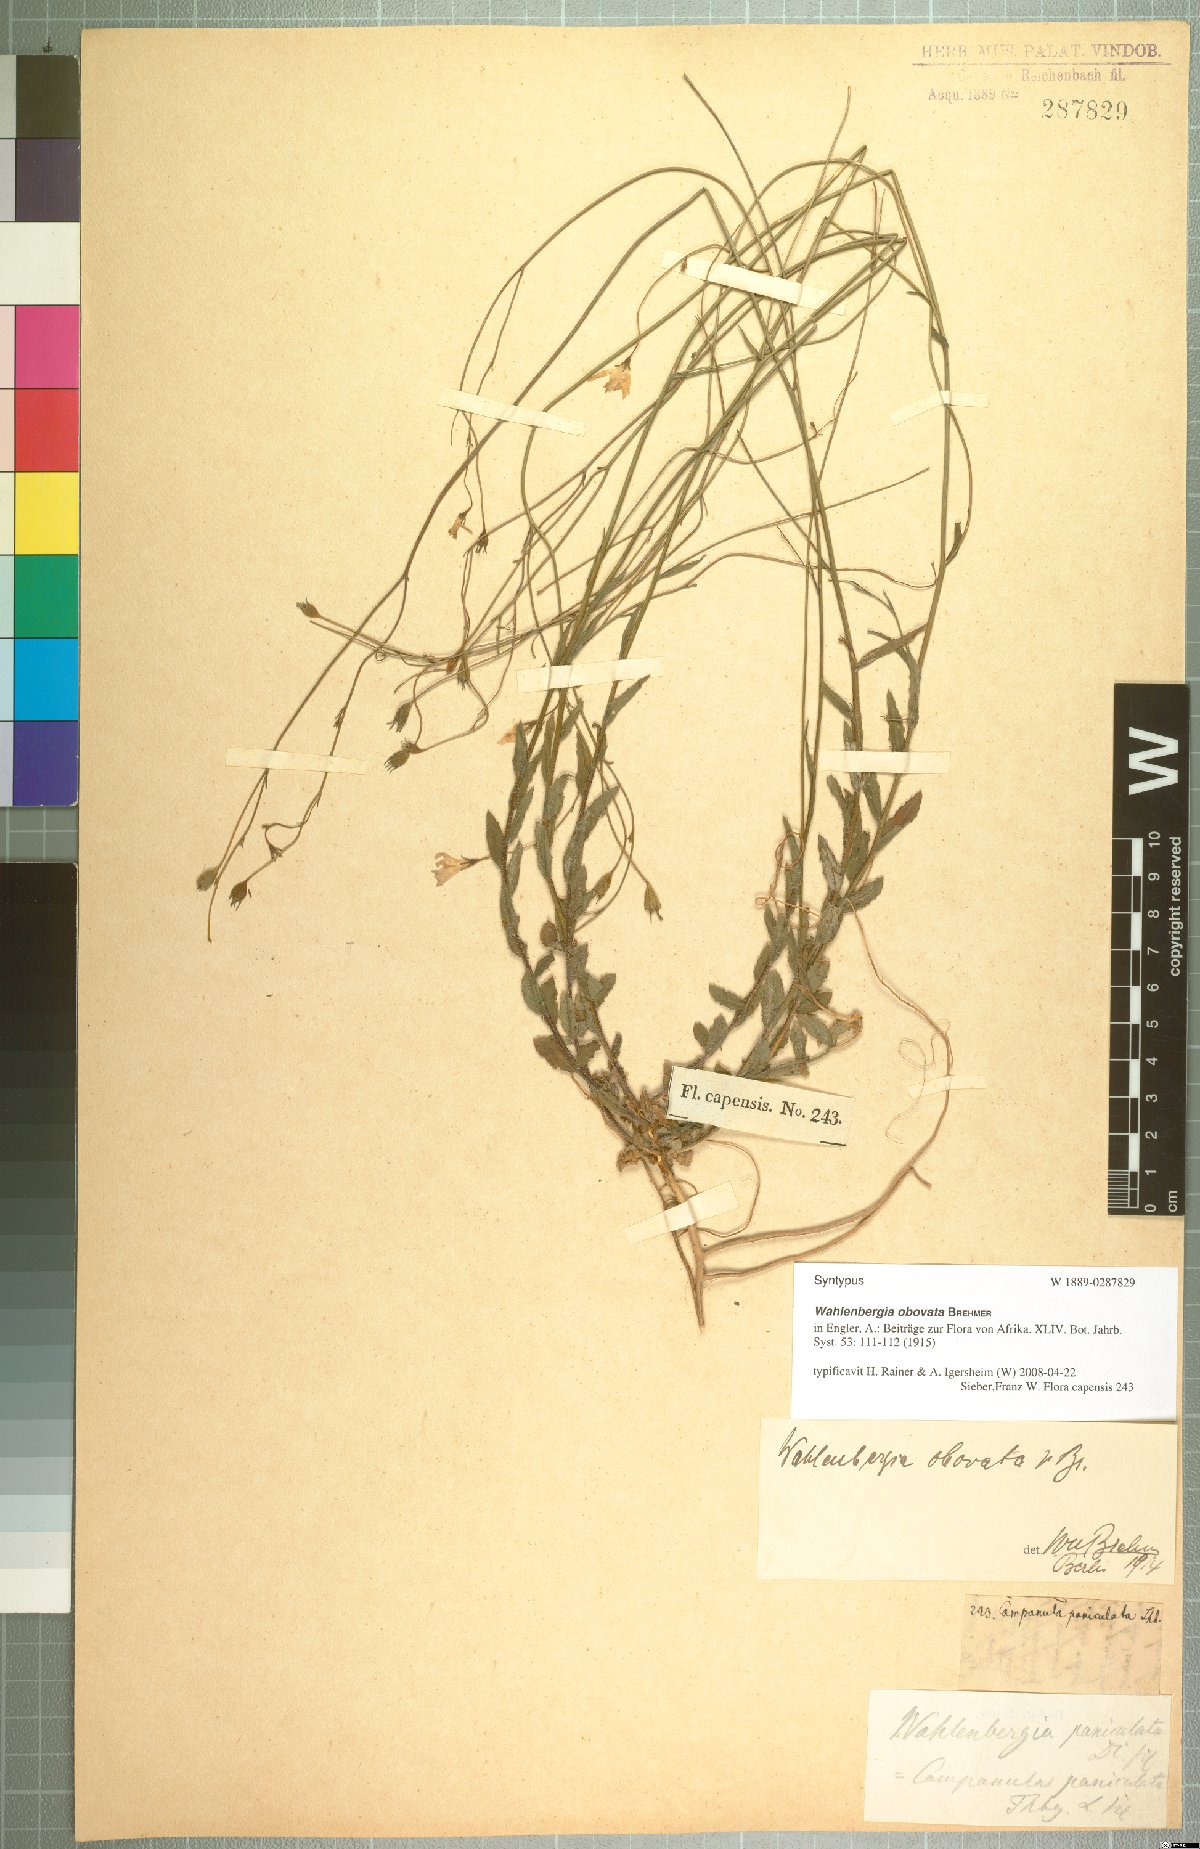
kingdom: Plantae
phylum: Tracheophyta
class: Magnoliopsida
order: Asterales
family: Campanulaceae
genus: Wahlenbergia
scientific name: Wahlenbergia obovata
